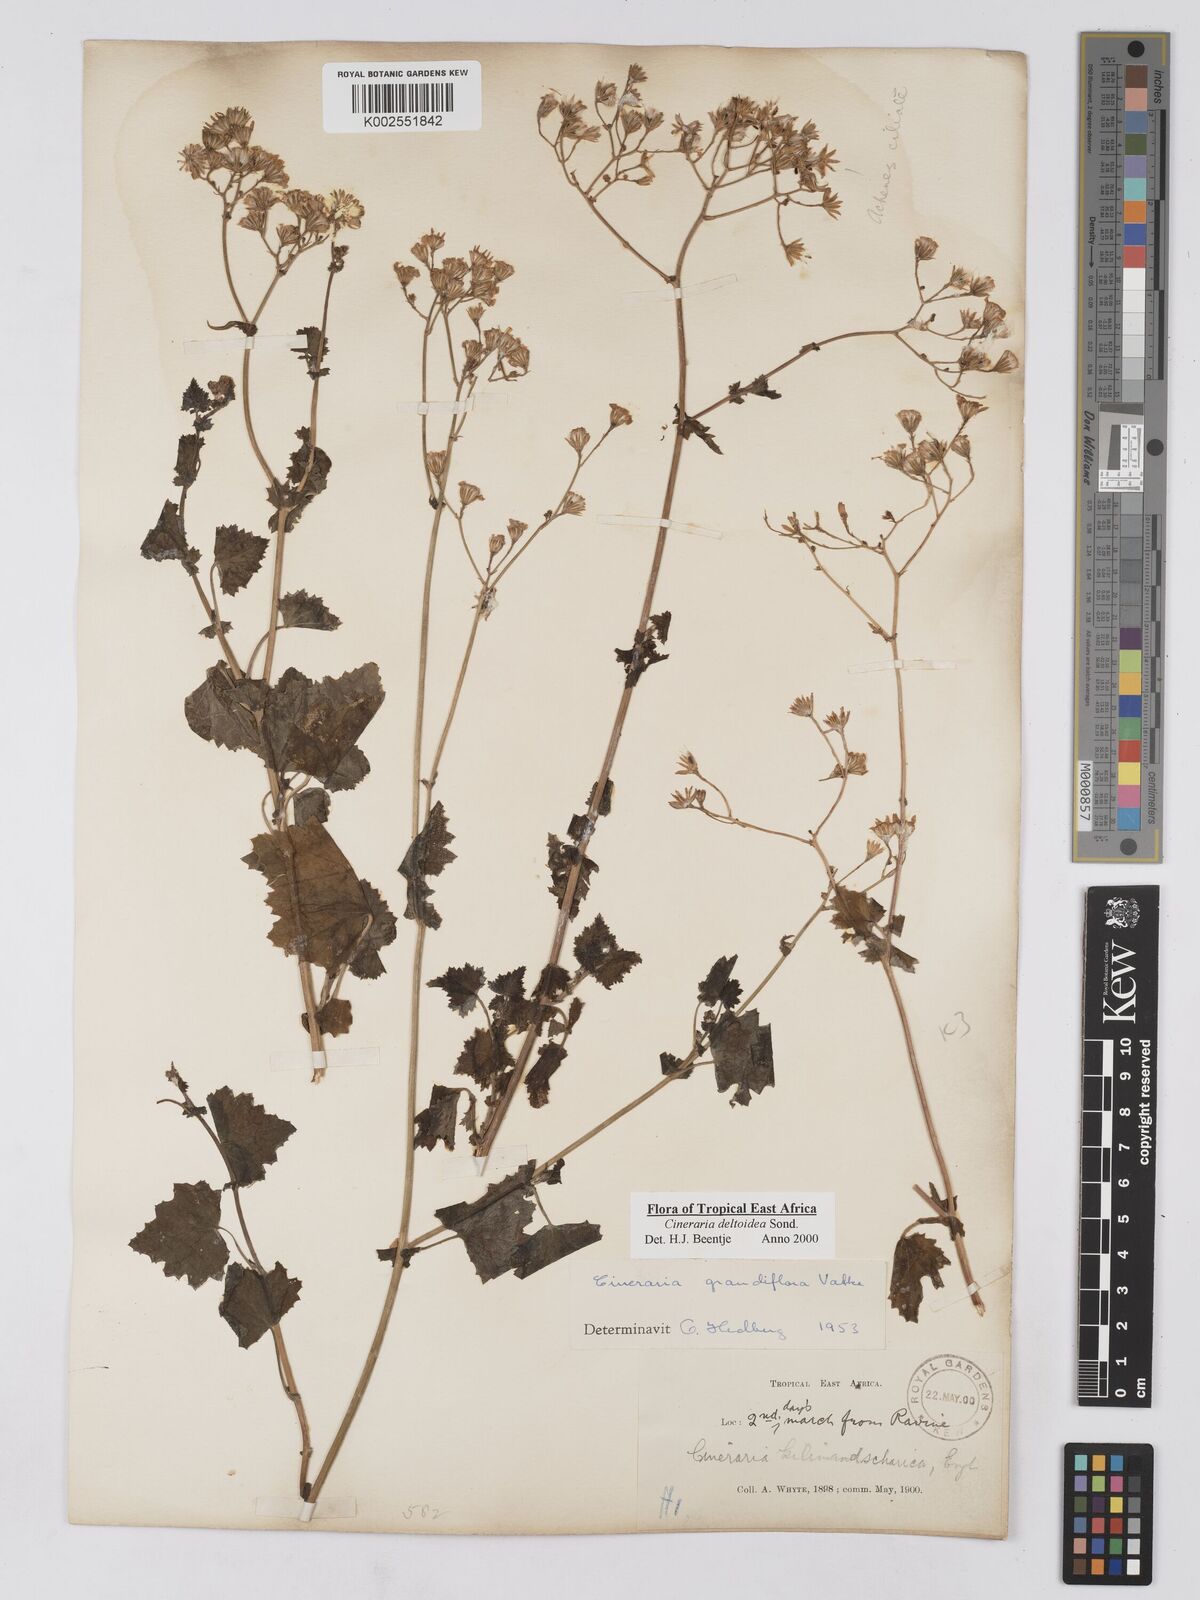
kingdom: Plantae
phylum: Tracheophyta
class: Magnoliopsida
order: Asterales
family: Asteraceae
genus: Cineraria
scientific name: Cineraria deltoidea
